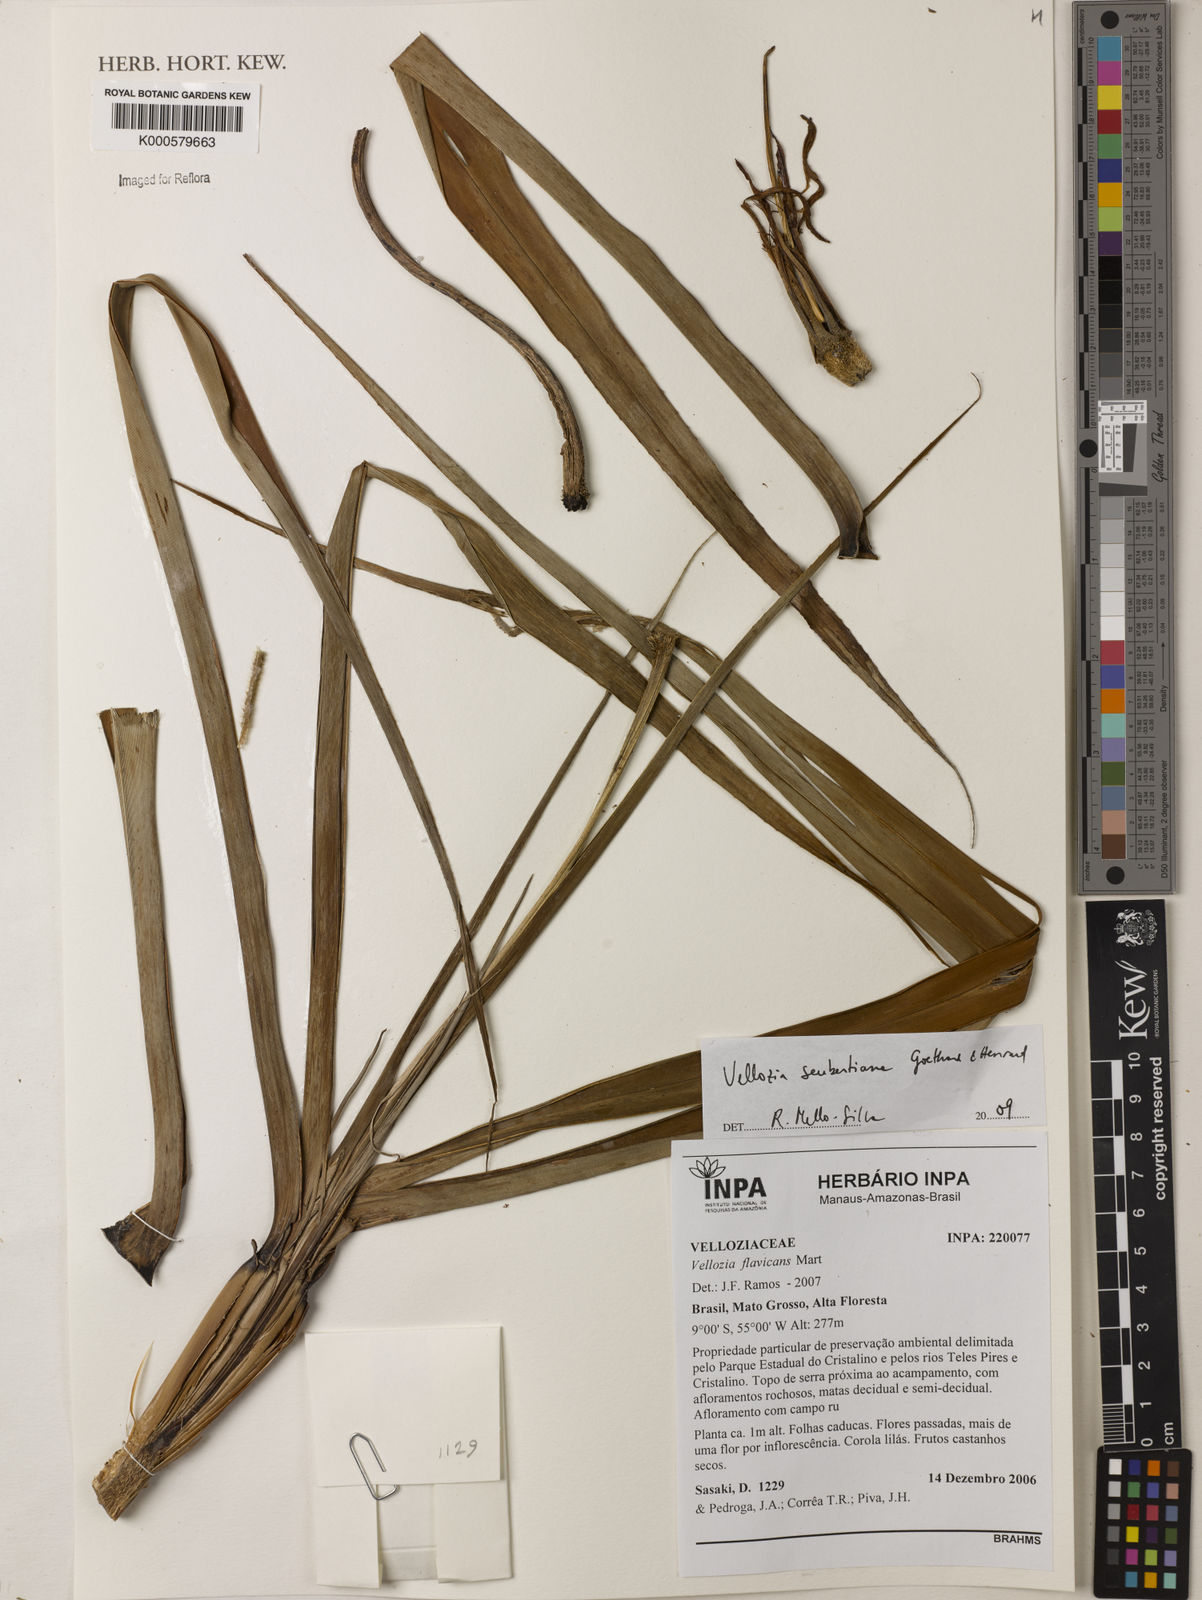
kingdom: Plantae
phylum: Tracheophyta
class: Liliopsida
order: Pandanales
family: Velloziaceae
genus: Vellozia
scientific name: Vellozia seubertiana
